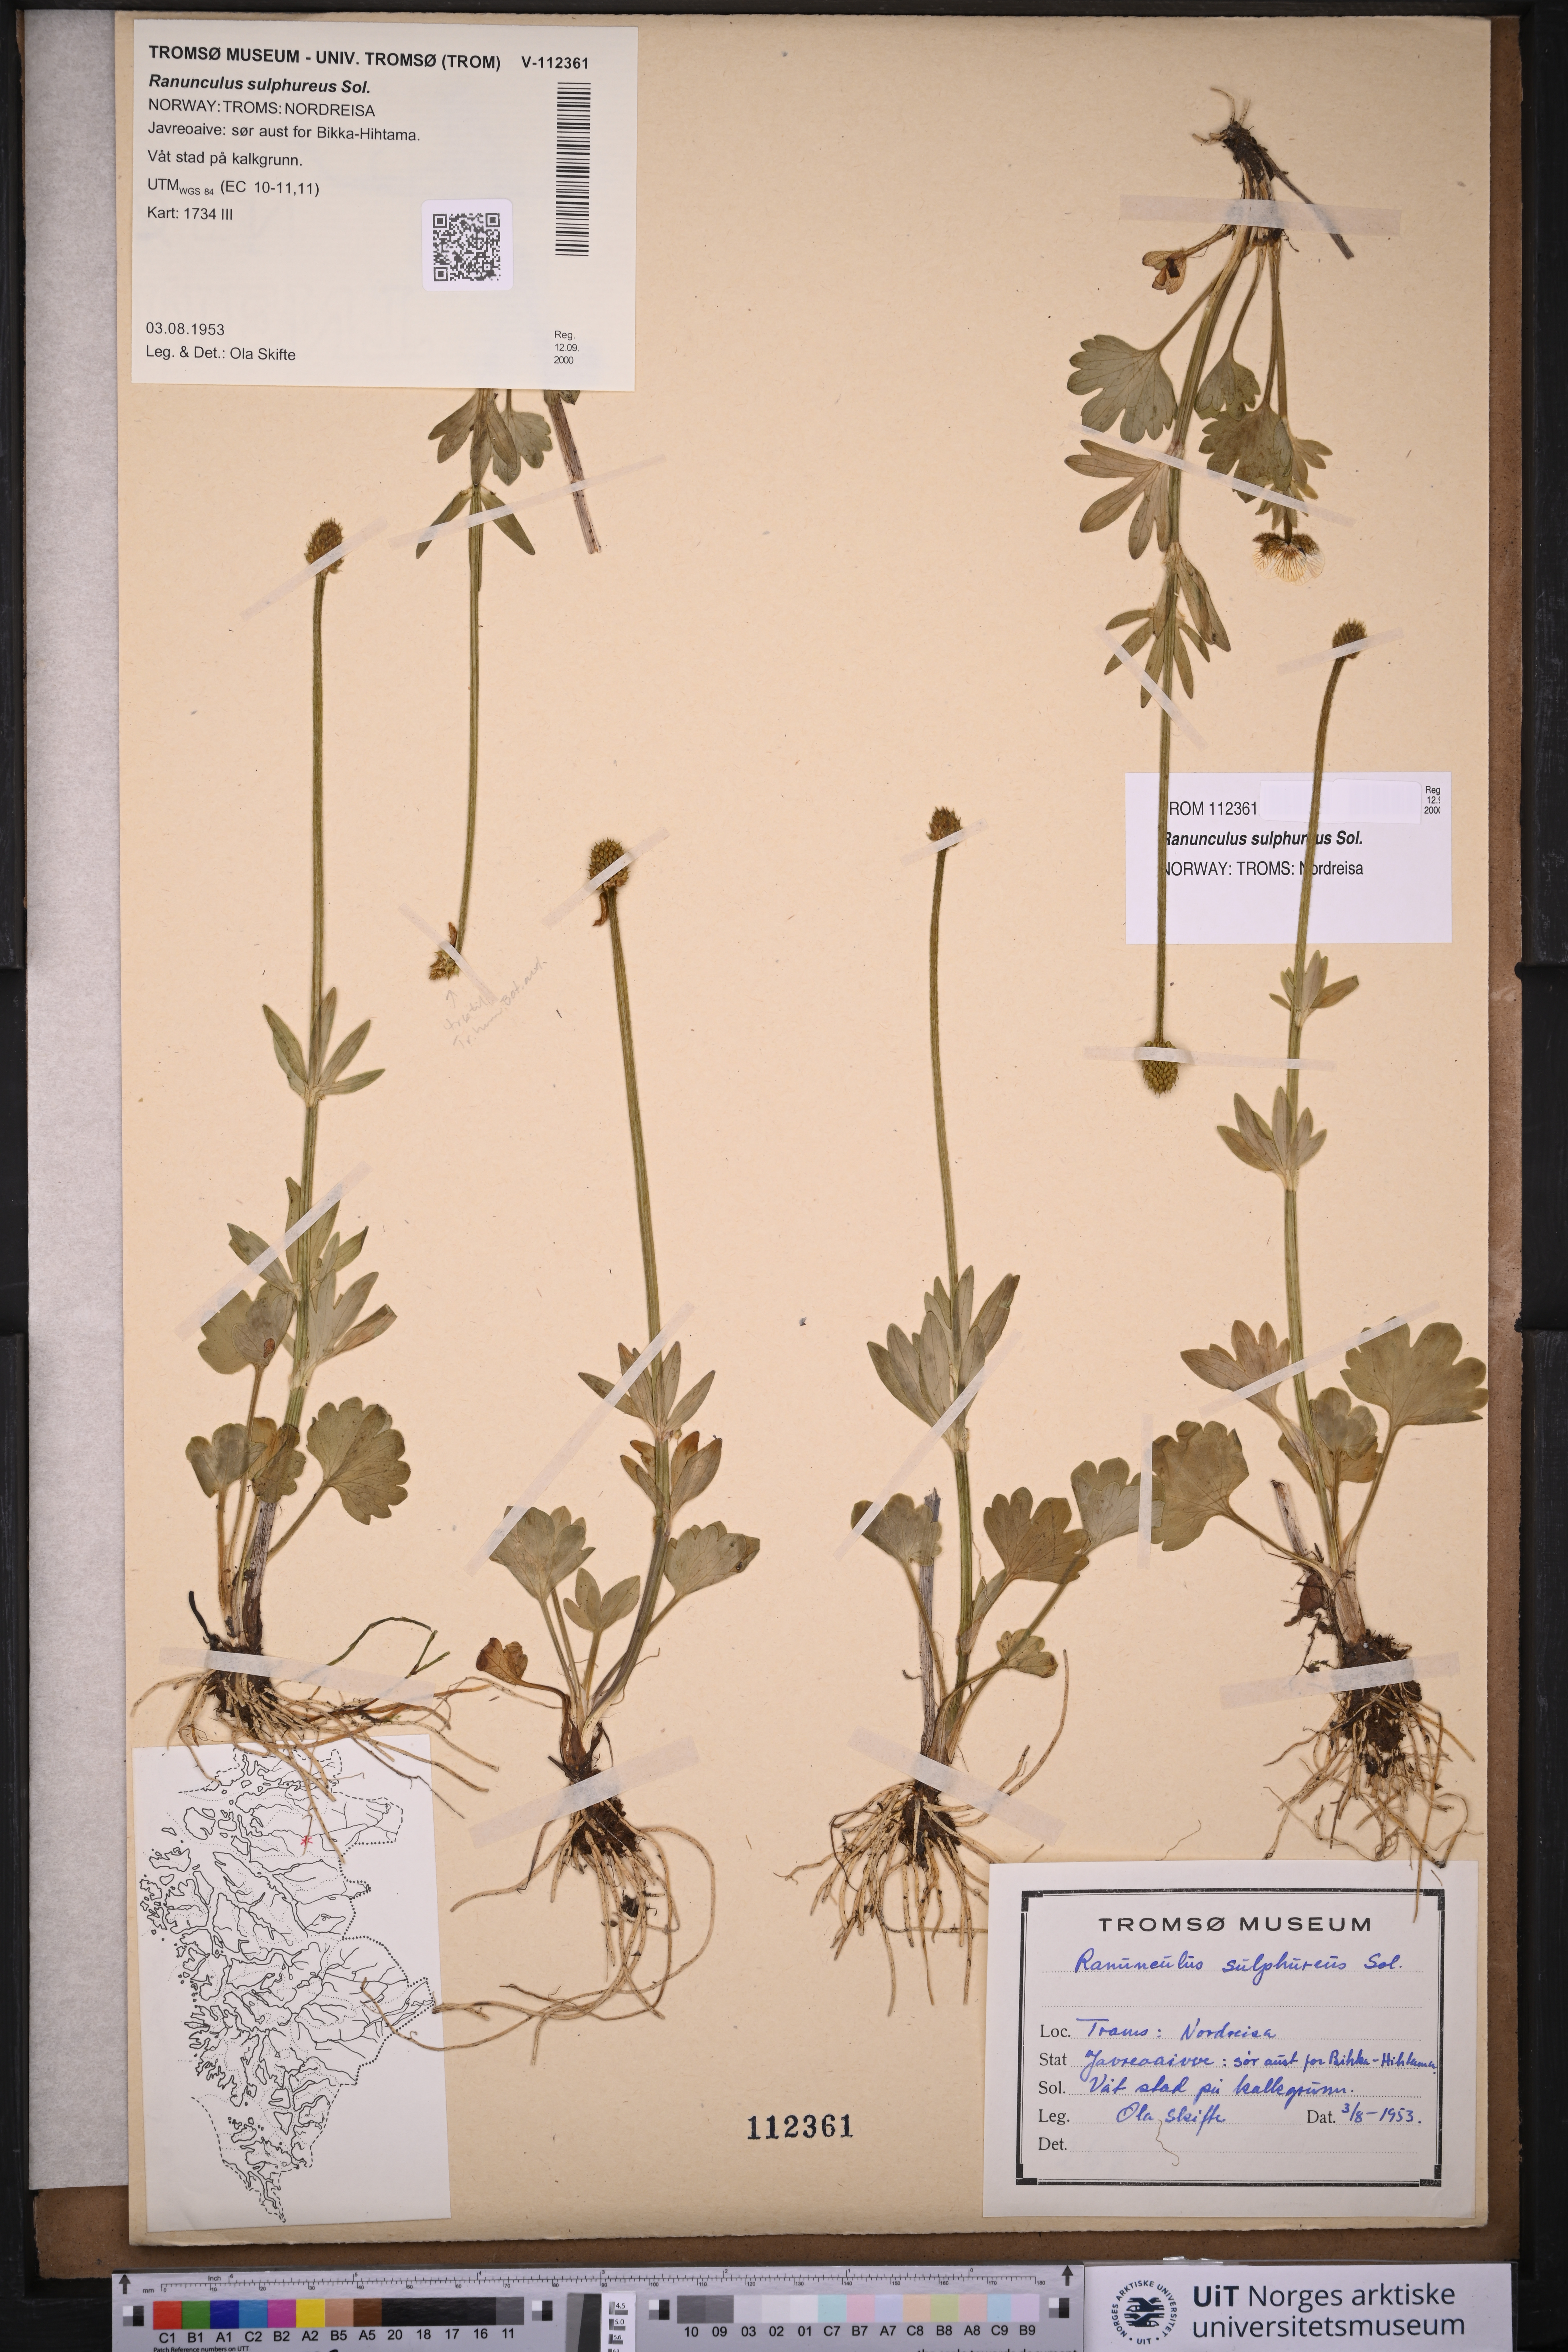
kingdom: Plantae
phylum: Tracheophyta
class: Magnoliopsida
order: Ranunculales
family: Ranunculaceae
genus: Ranunculus
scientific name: Ranunculus sulphureus
